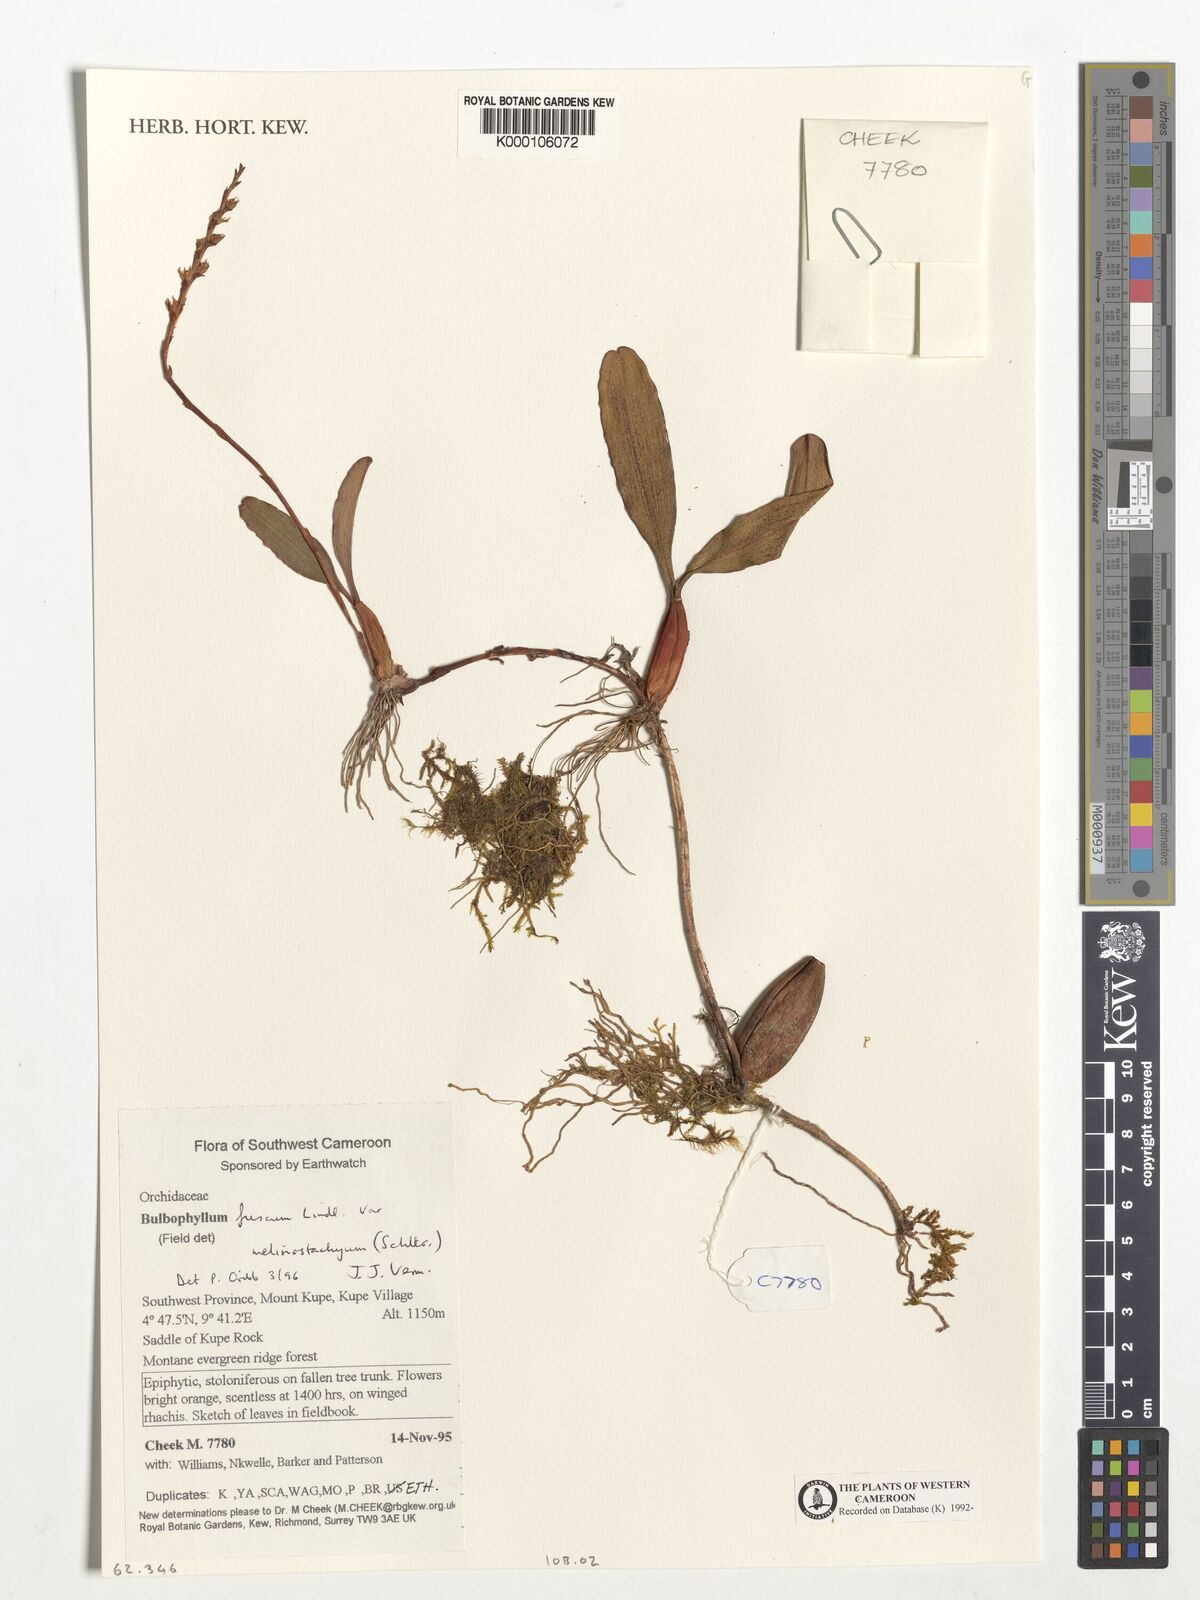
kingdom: Plantae
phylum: Tracheophyta
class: Liliopsida
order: Asparagales
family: Orchidaceae
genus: Bulbophyllum
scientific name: Bulbophyllum fuscum
